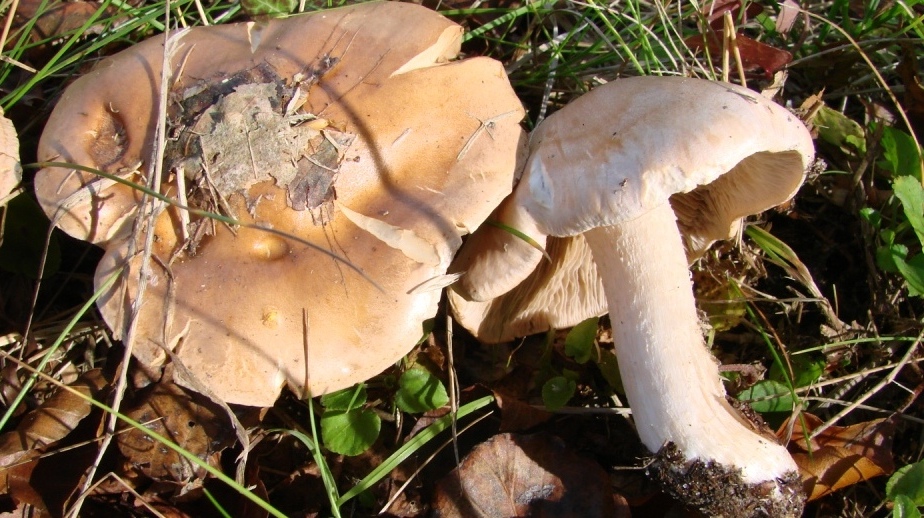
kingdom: Fungi
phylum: Basidiomycota
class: Agaricomycetes
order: Agaricales
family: Hymenogastraceae
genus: Hebeloma
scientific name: Hebeloma sinapizans
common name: ræddike-tåreblad
